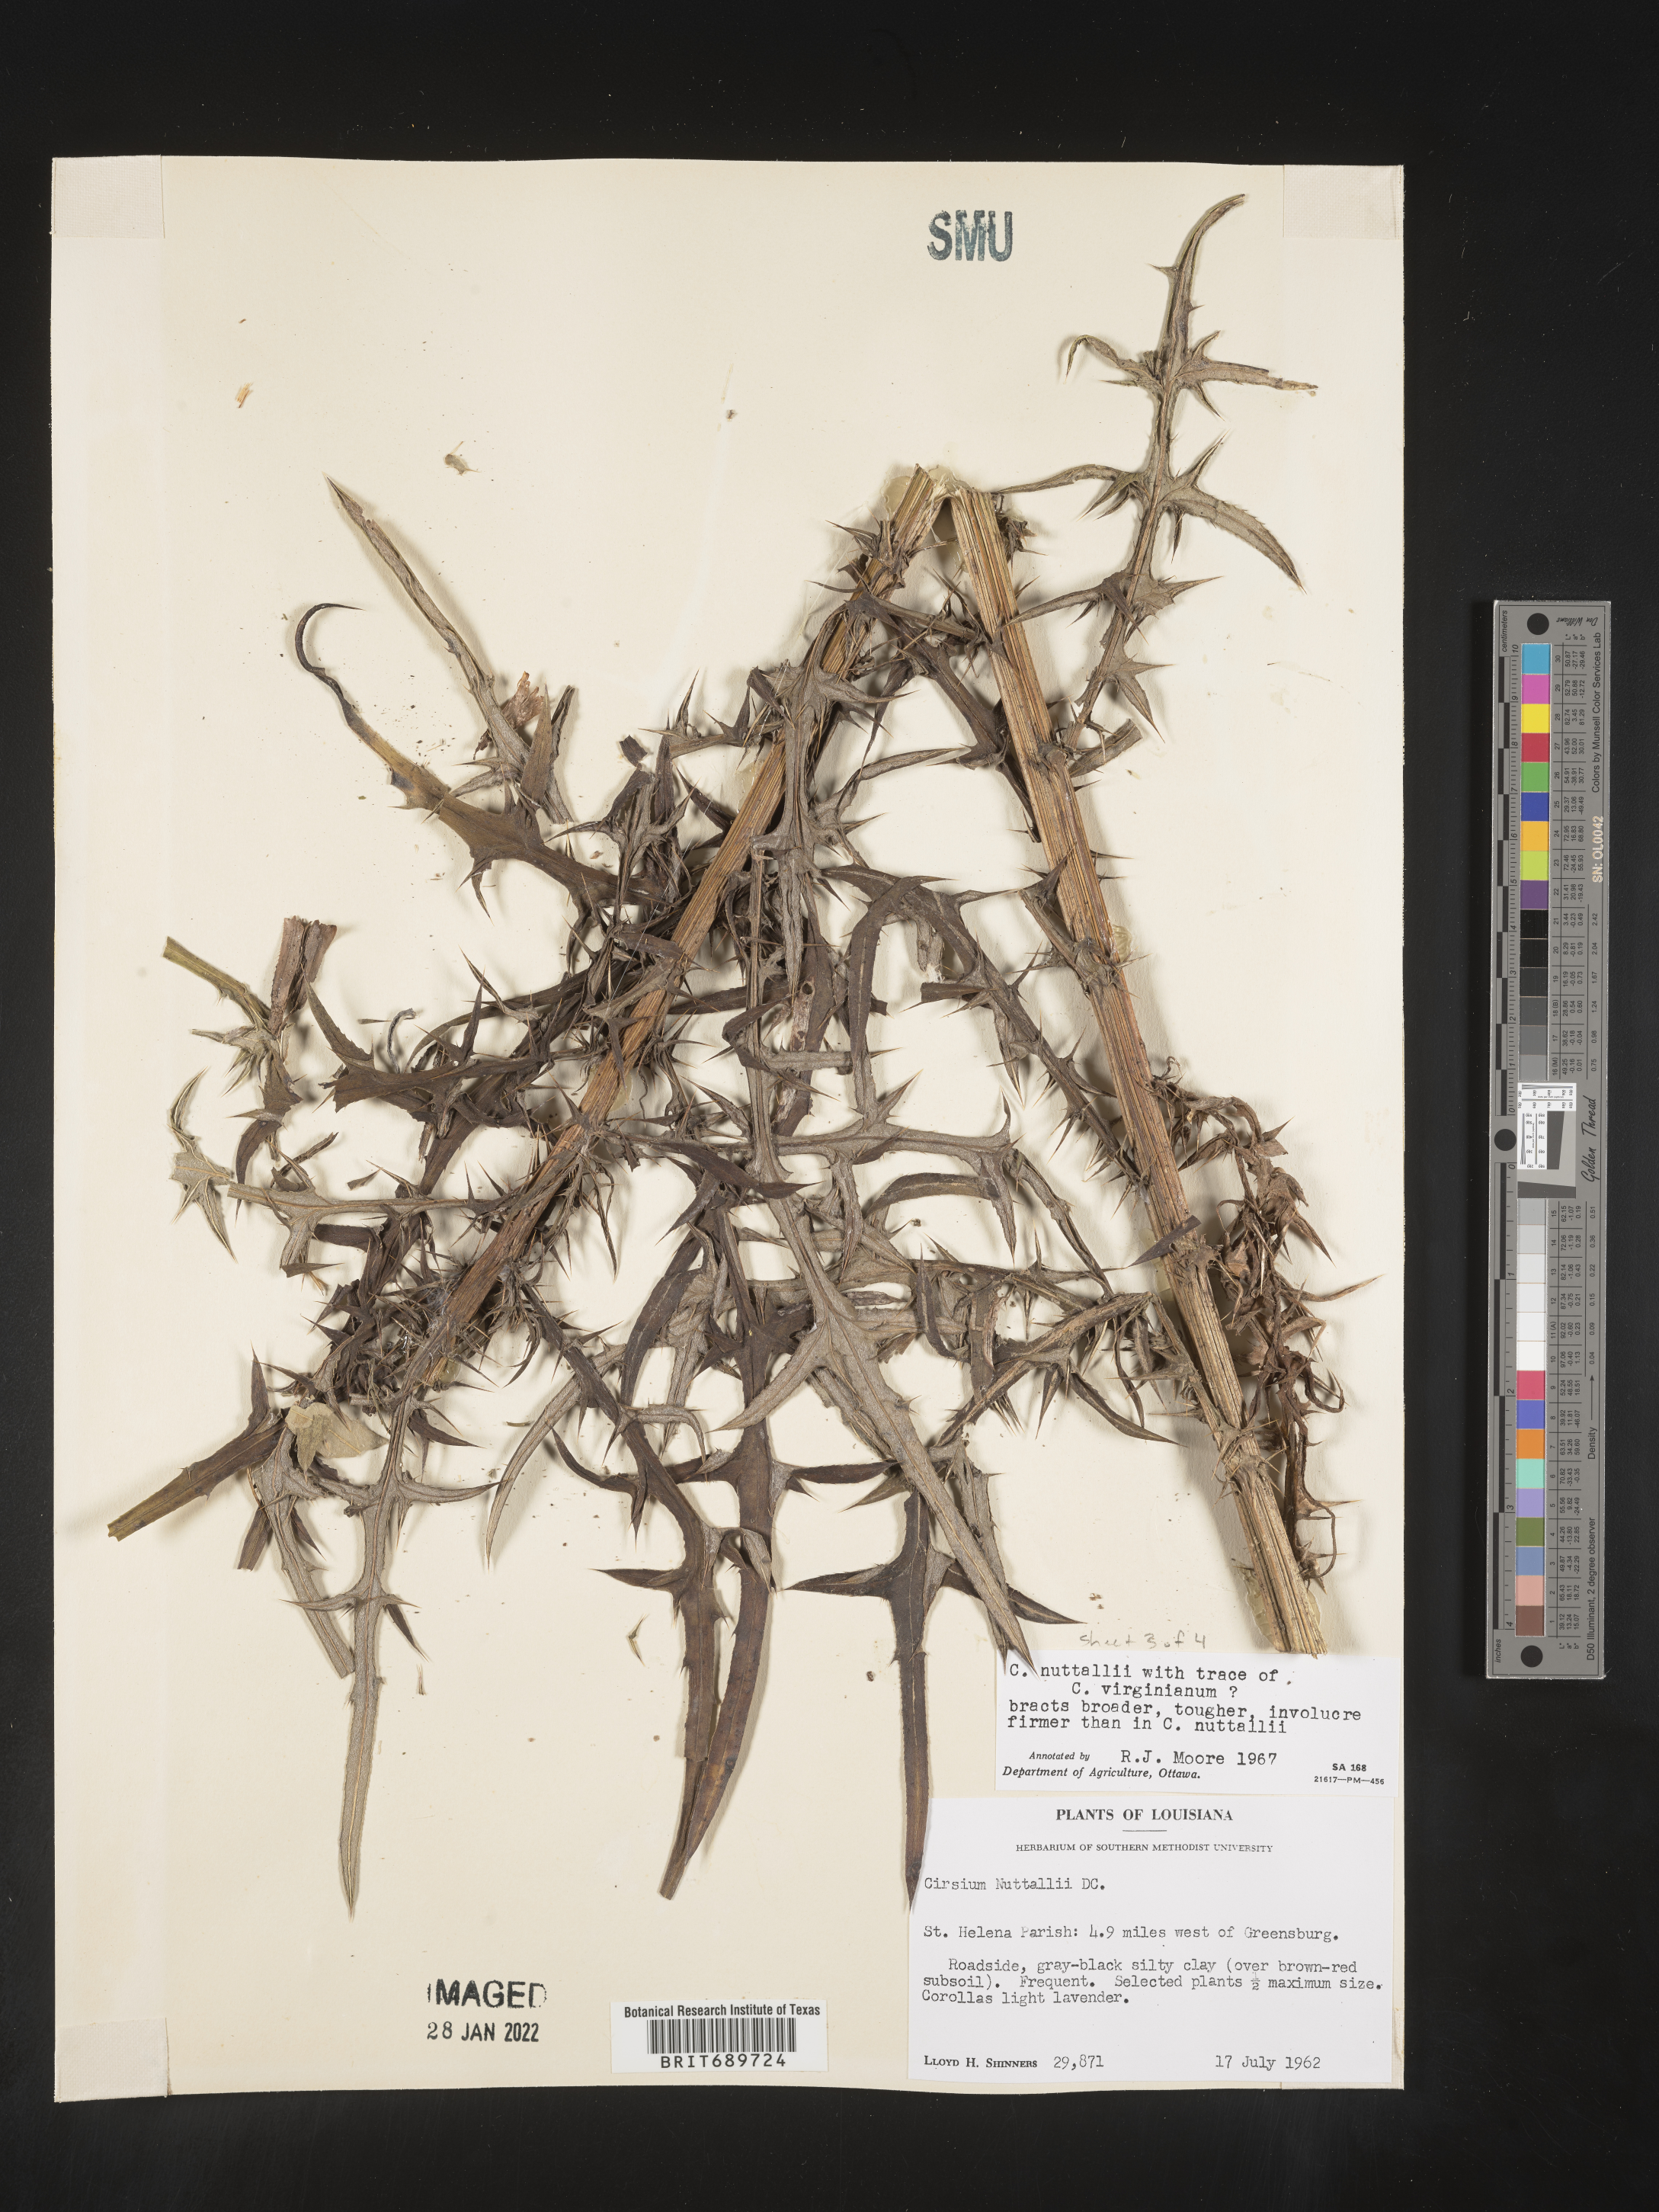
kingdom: Plantae
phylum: Tracheophyta
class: Magnoliopsida
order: Asterales
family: Asteraceae
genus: Cirsium
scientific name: Cirsium
